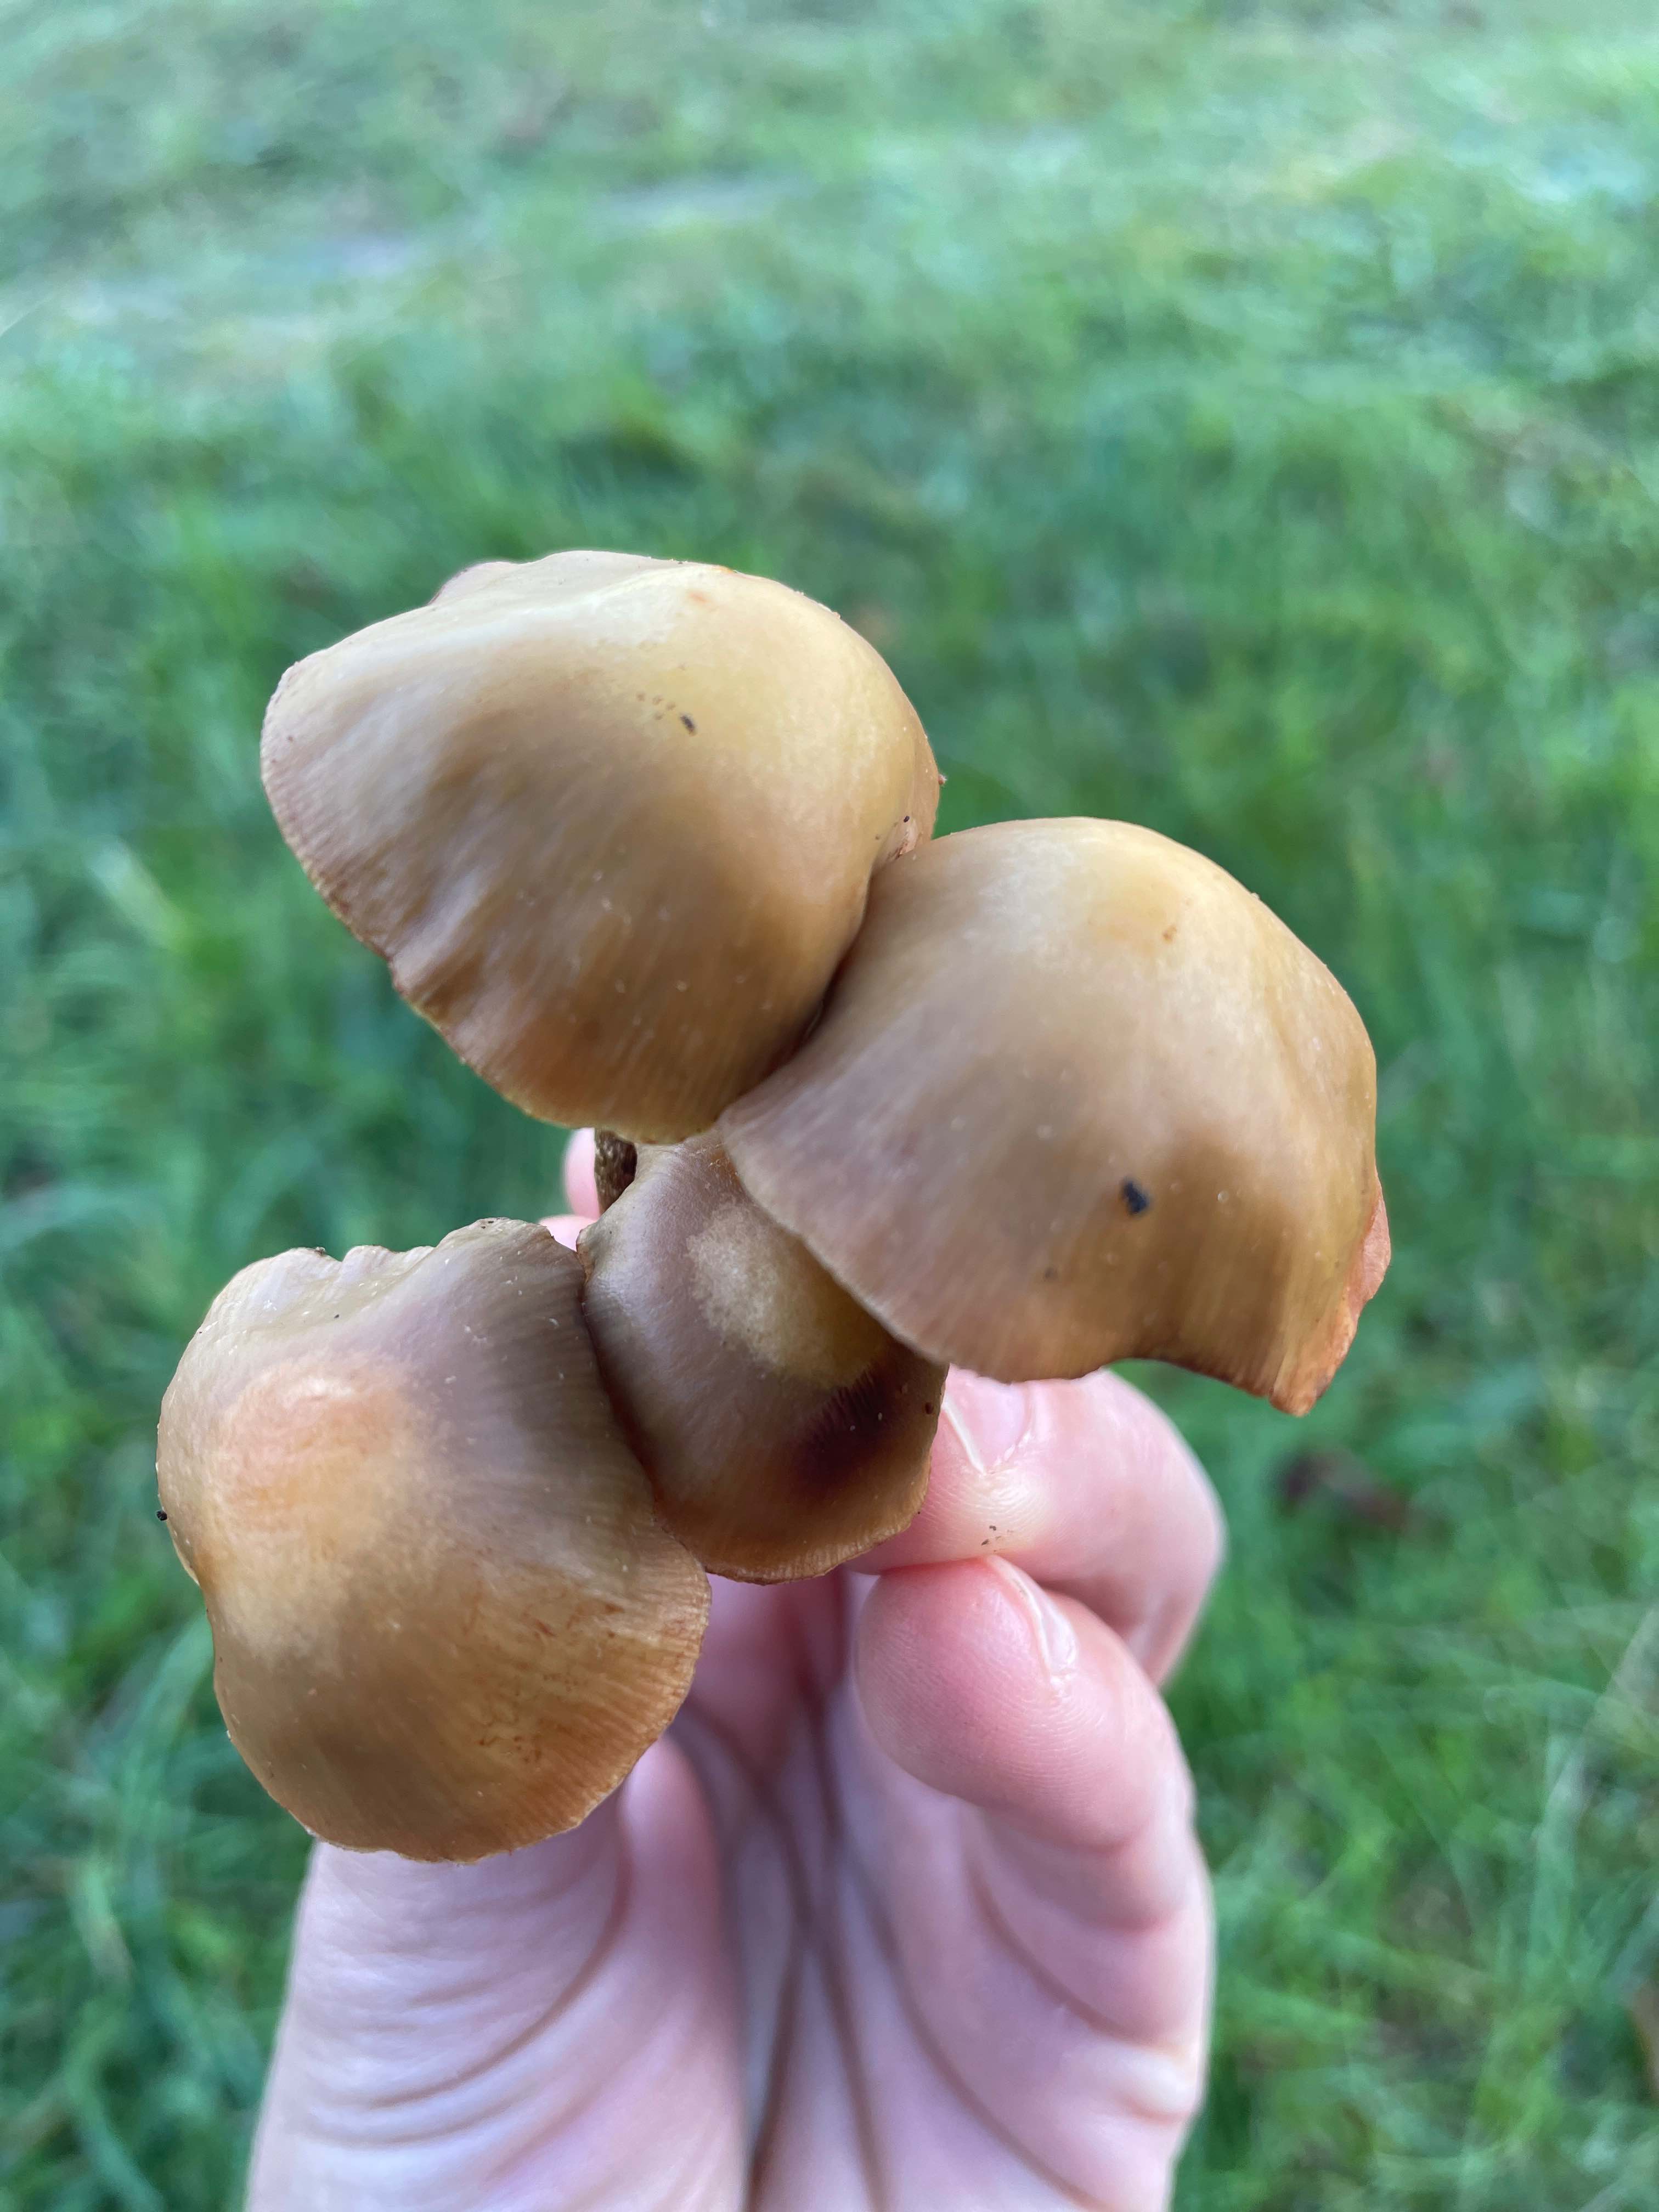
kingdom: Fungi
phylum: Basidiomycota
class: Agaricomycetes
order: Agaricales
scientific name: Agaricales
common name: champignonordenen
